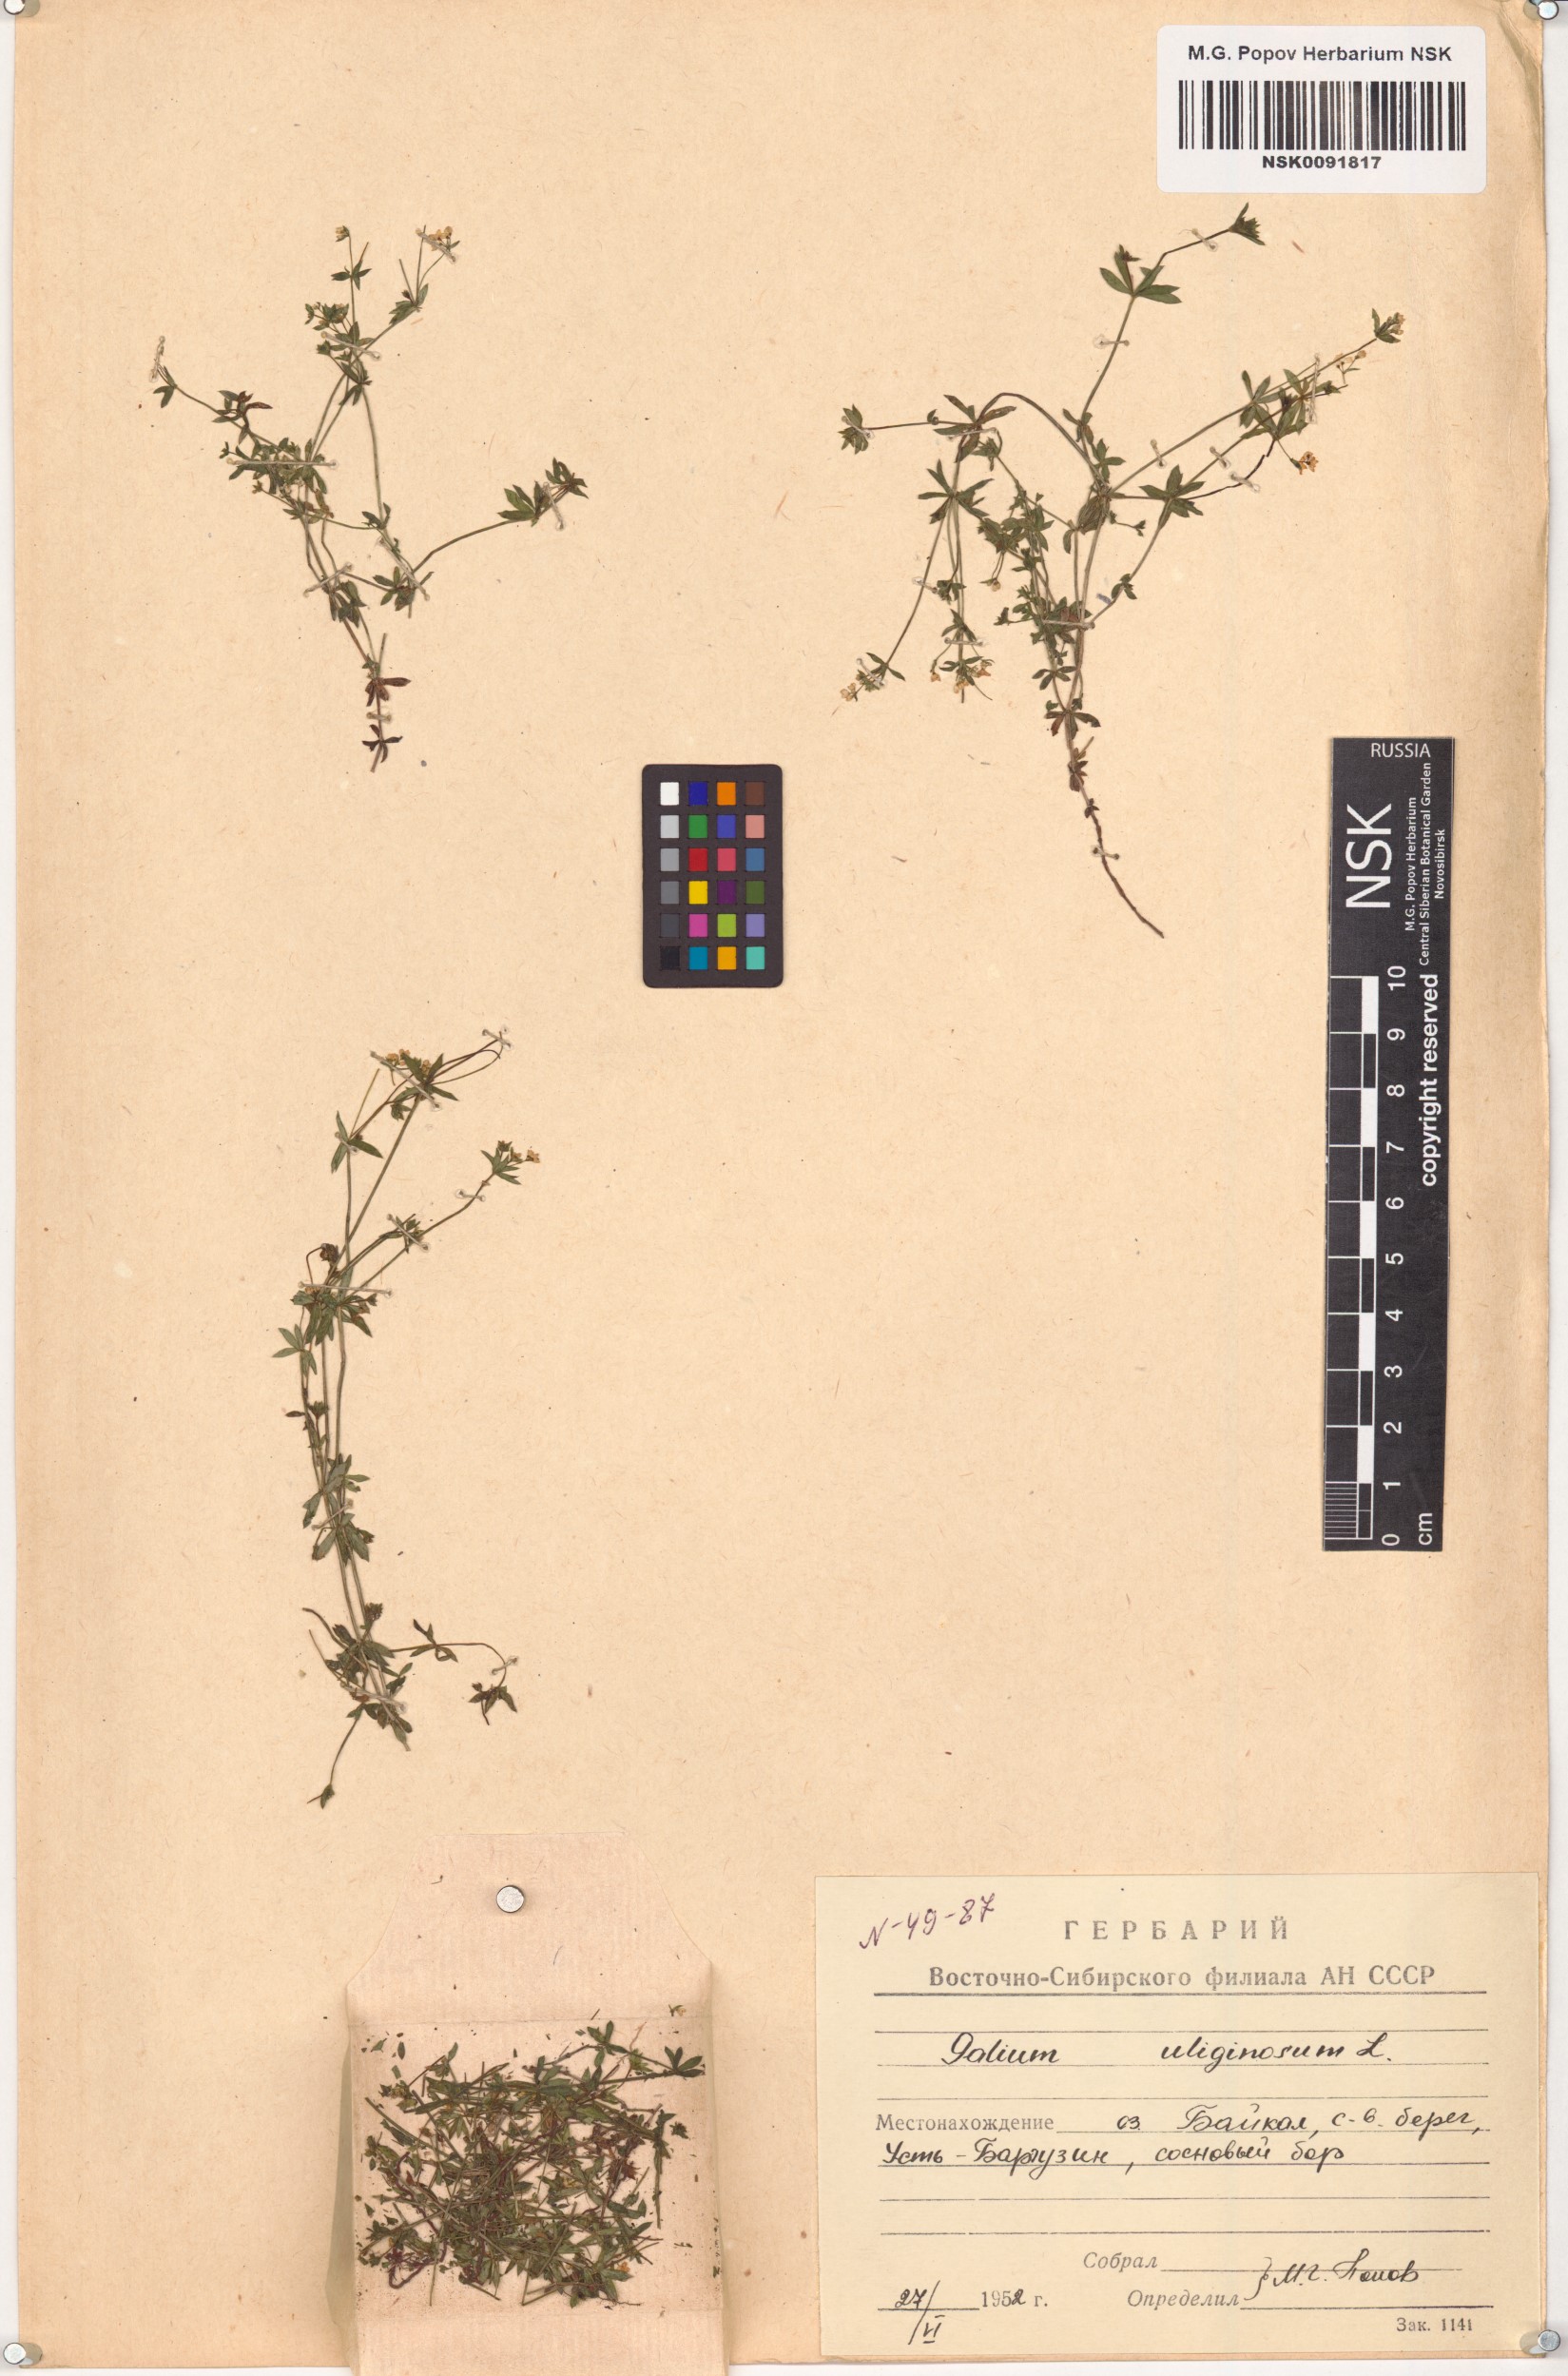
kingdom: Plantae
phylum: Tracheophyta
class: Magnoliopsida
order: Gentianales
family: Rubiaceae
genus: Galium
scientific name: Galium uliginosum
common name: Fen bedstraw
